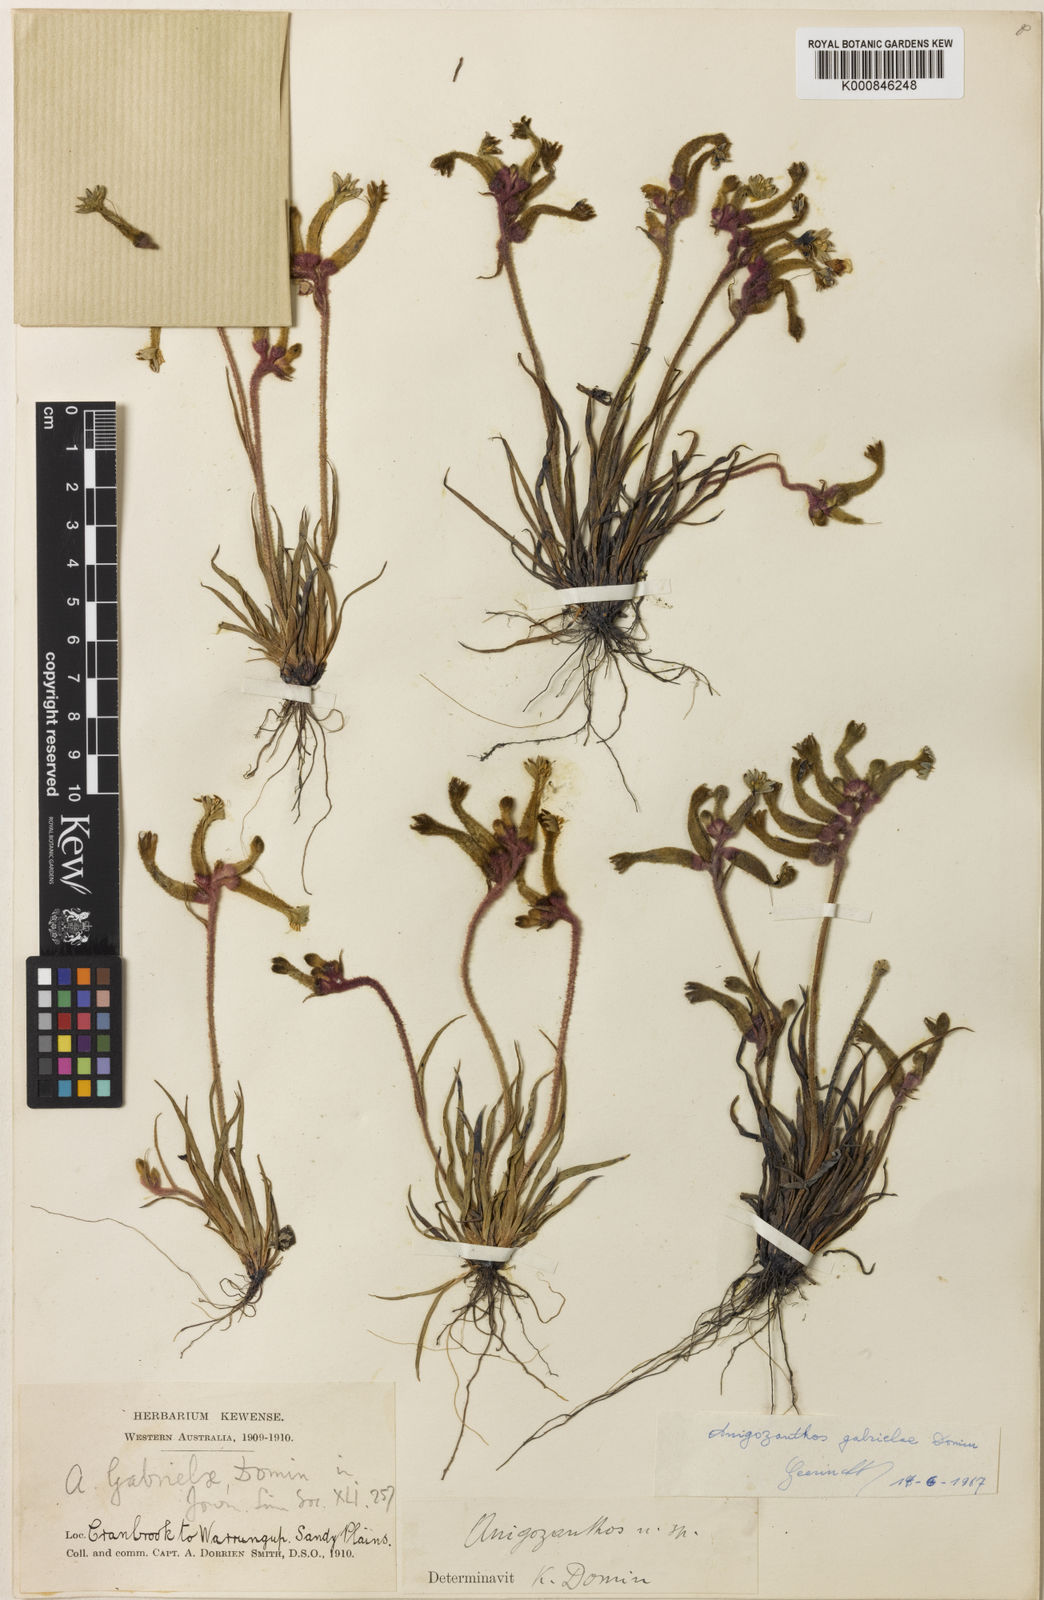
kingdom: Plantae
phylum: Tracheophyta
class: Liliopsida
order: Commelinales
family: Haemodoraceae
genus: Anigozanthos
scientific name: Anigozanthos gabrielae
